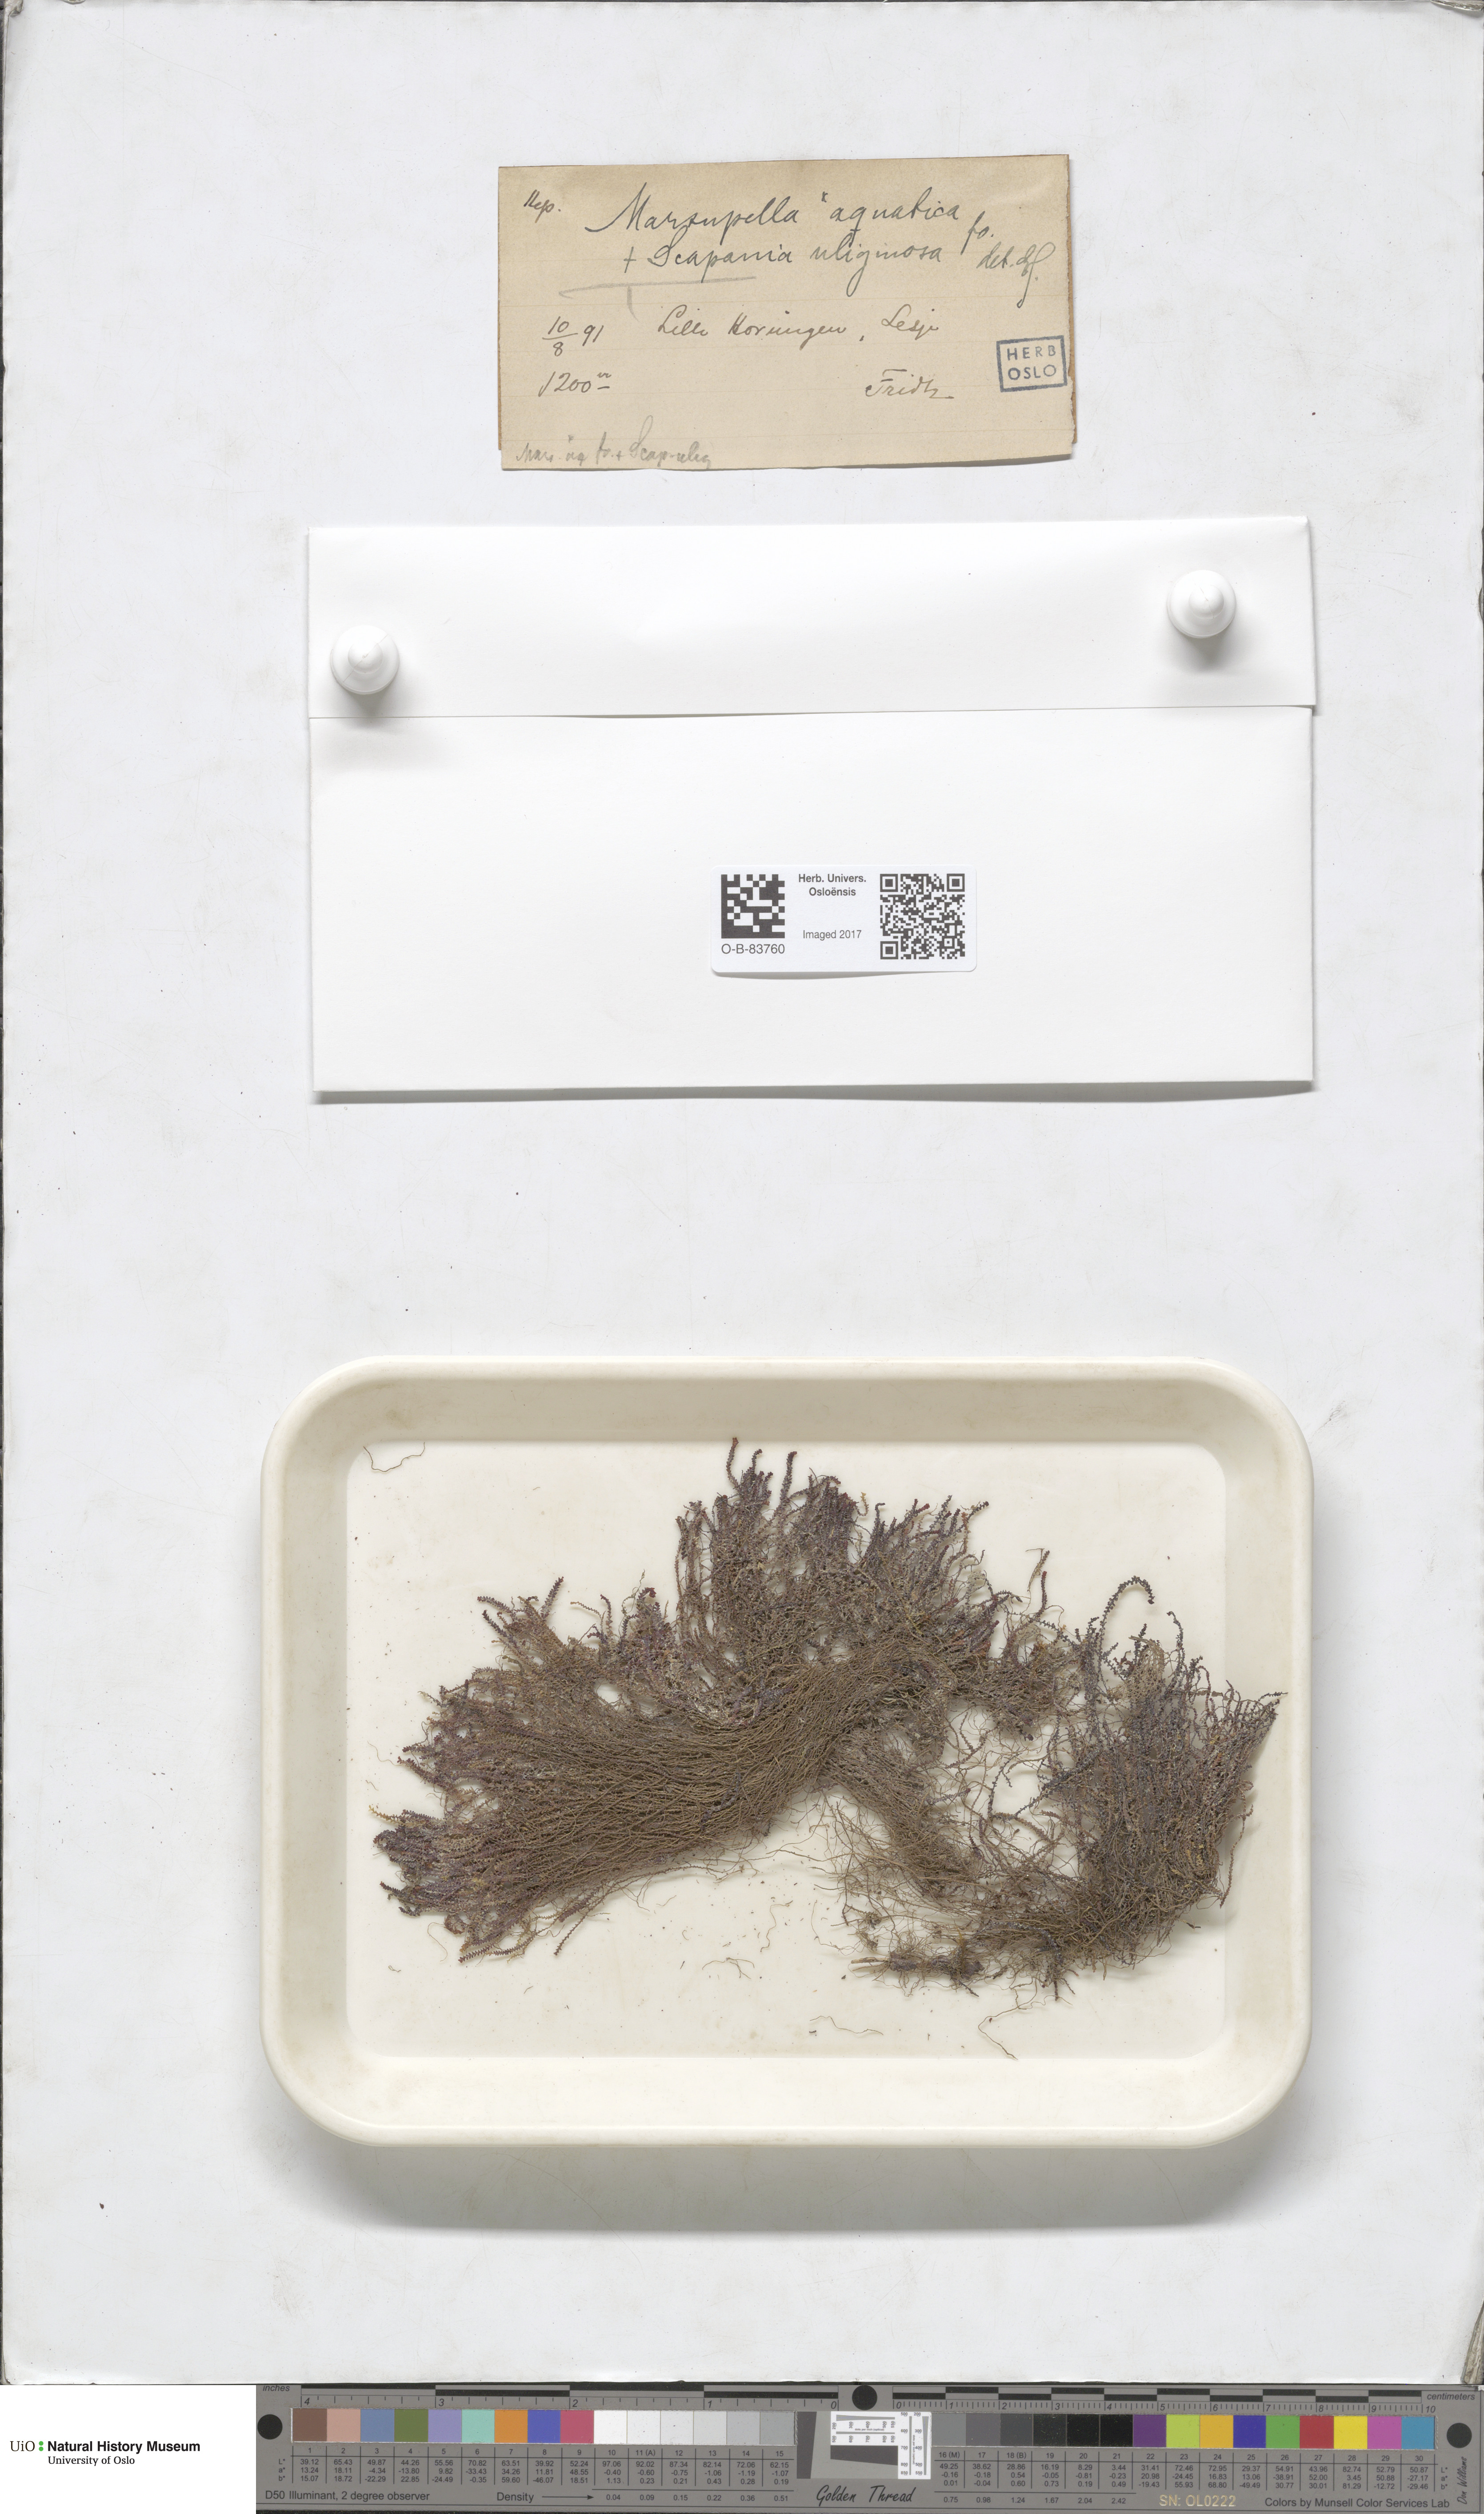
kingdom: Plantae
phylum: Marchantiophyta
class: Jungermanniopsida
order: Jungermanniales
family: Scapaniaceae
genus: Scapania
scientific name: Scapania uliginosa
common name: Marsh earwort
